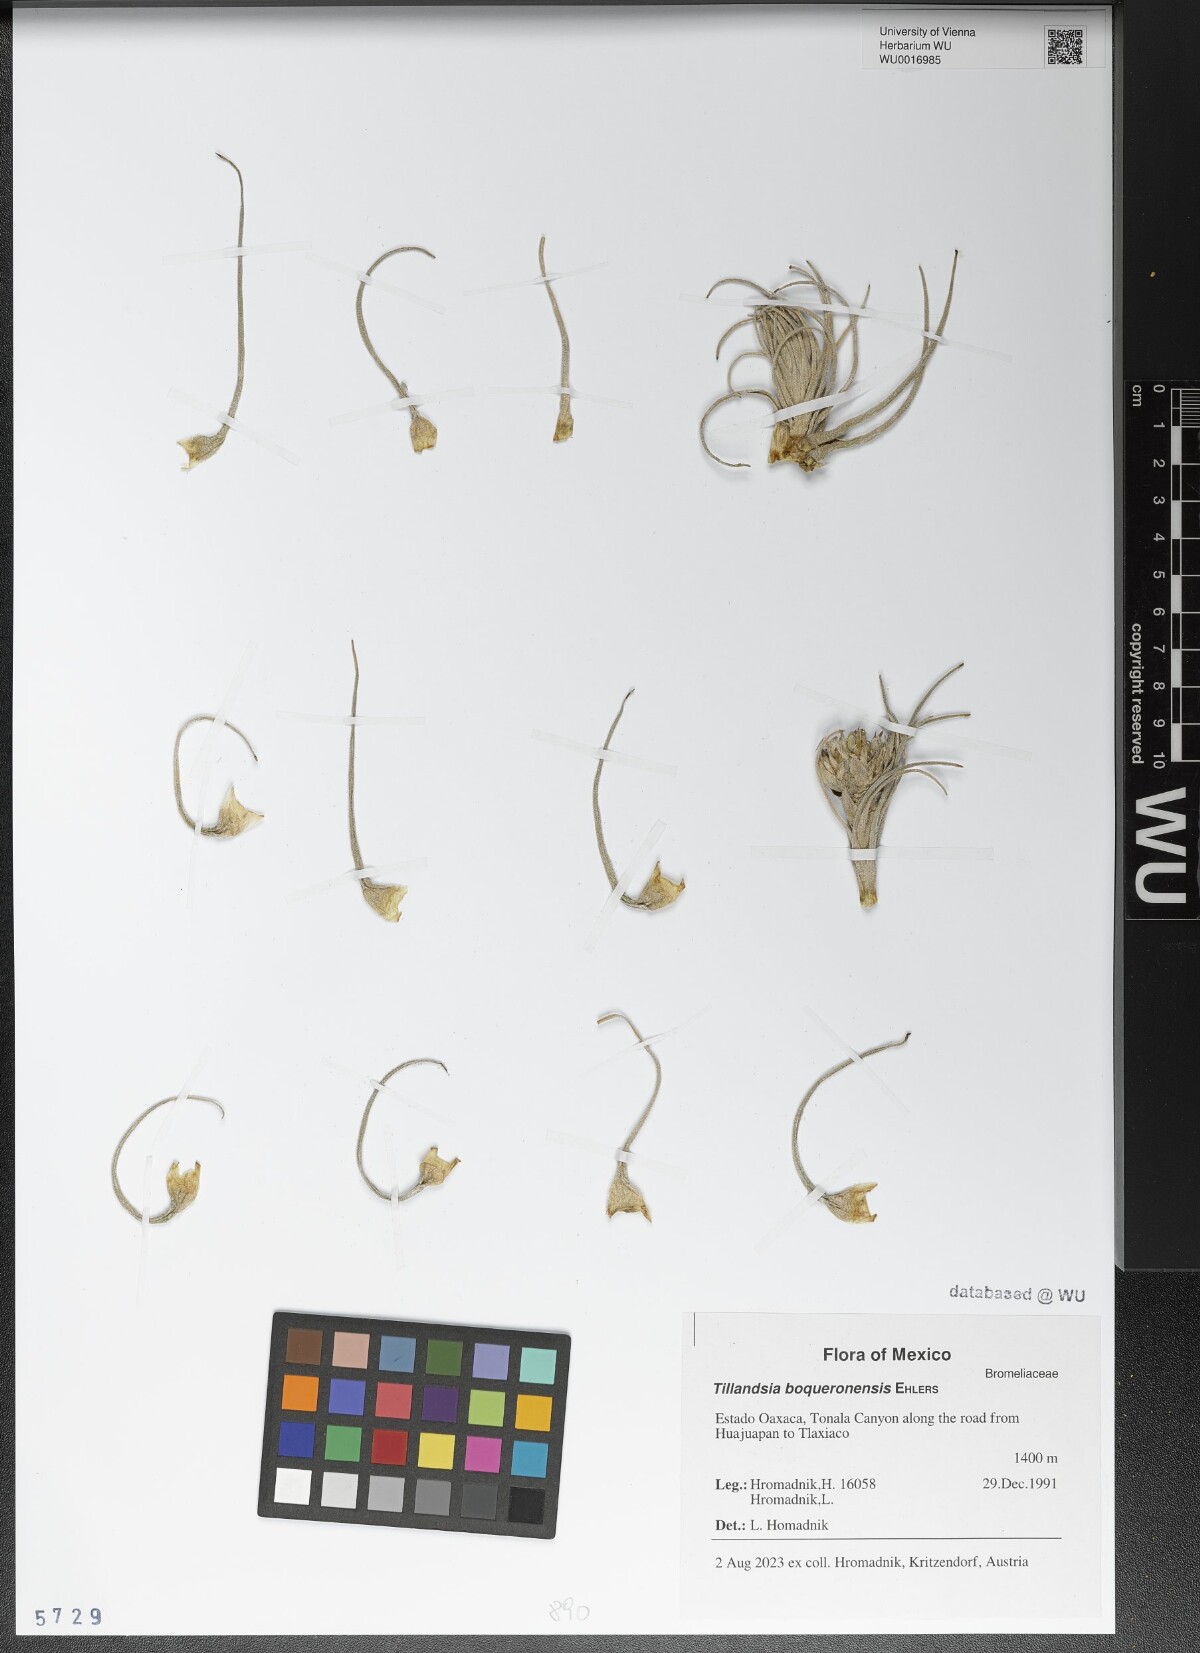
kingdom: Plantae
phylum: Tracheophyta
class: Liliopsida
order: Poales
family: Bromeliaceae
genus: Tillandsia
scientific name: Tillandsia boqueronensis
